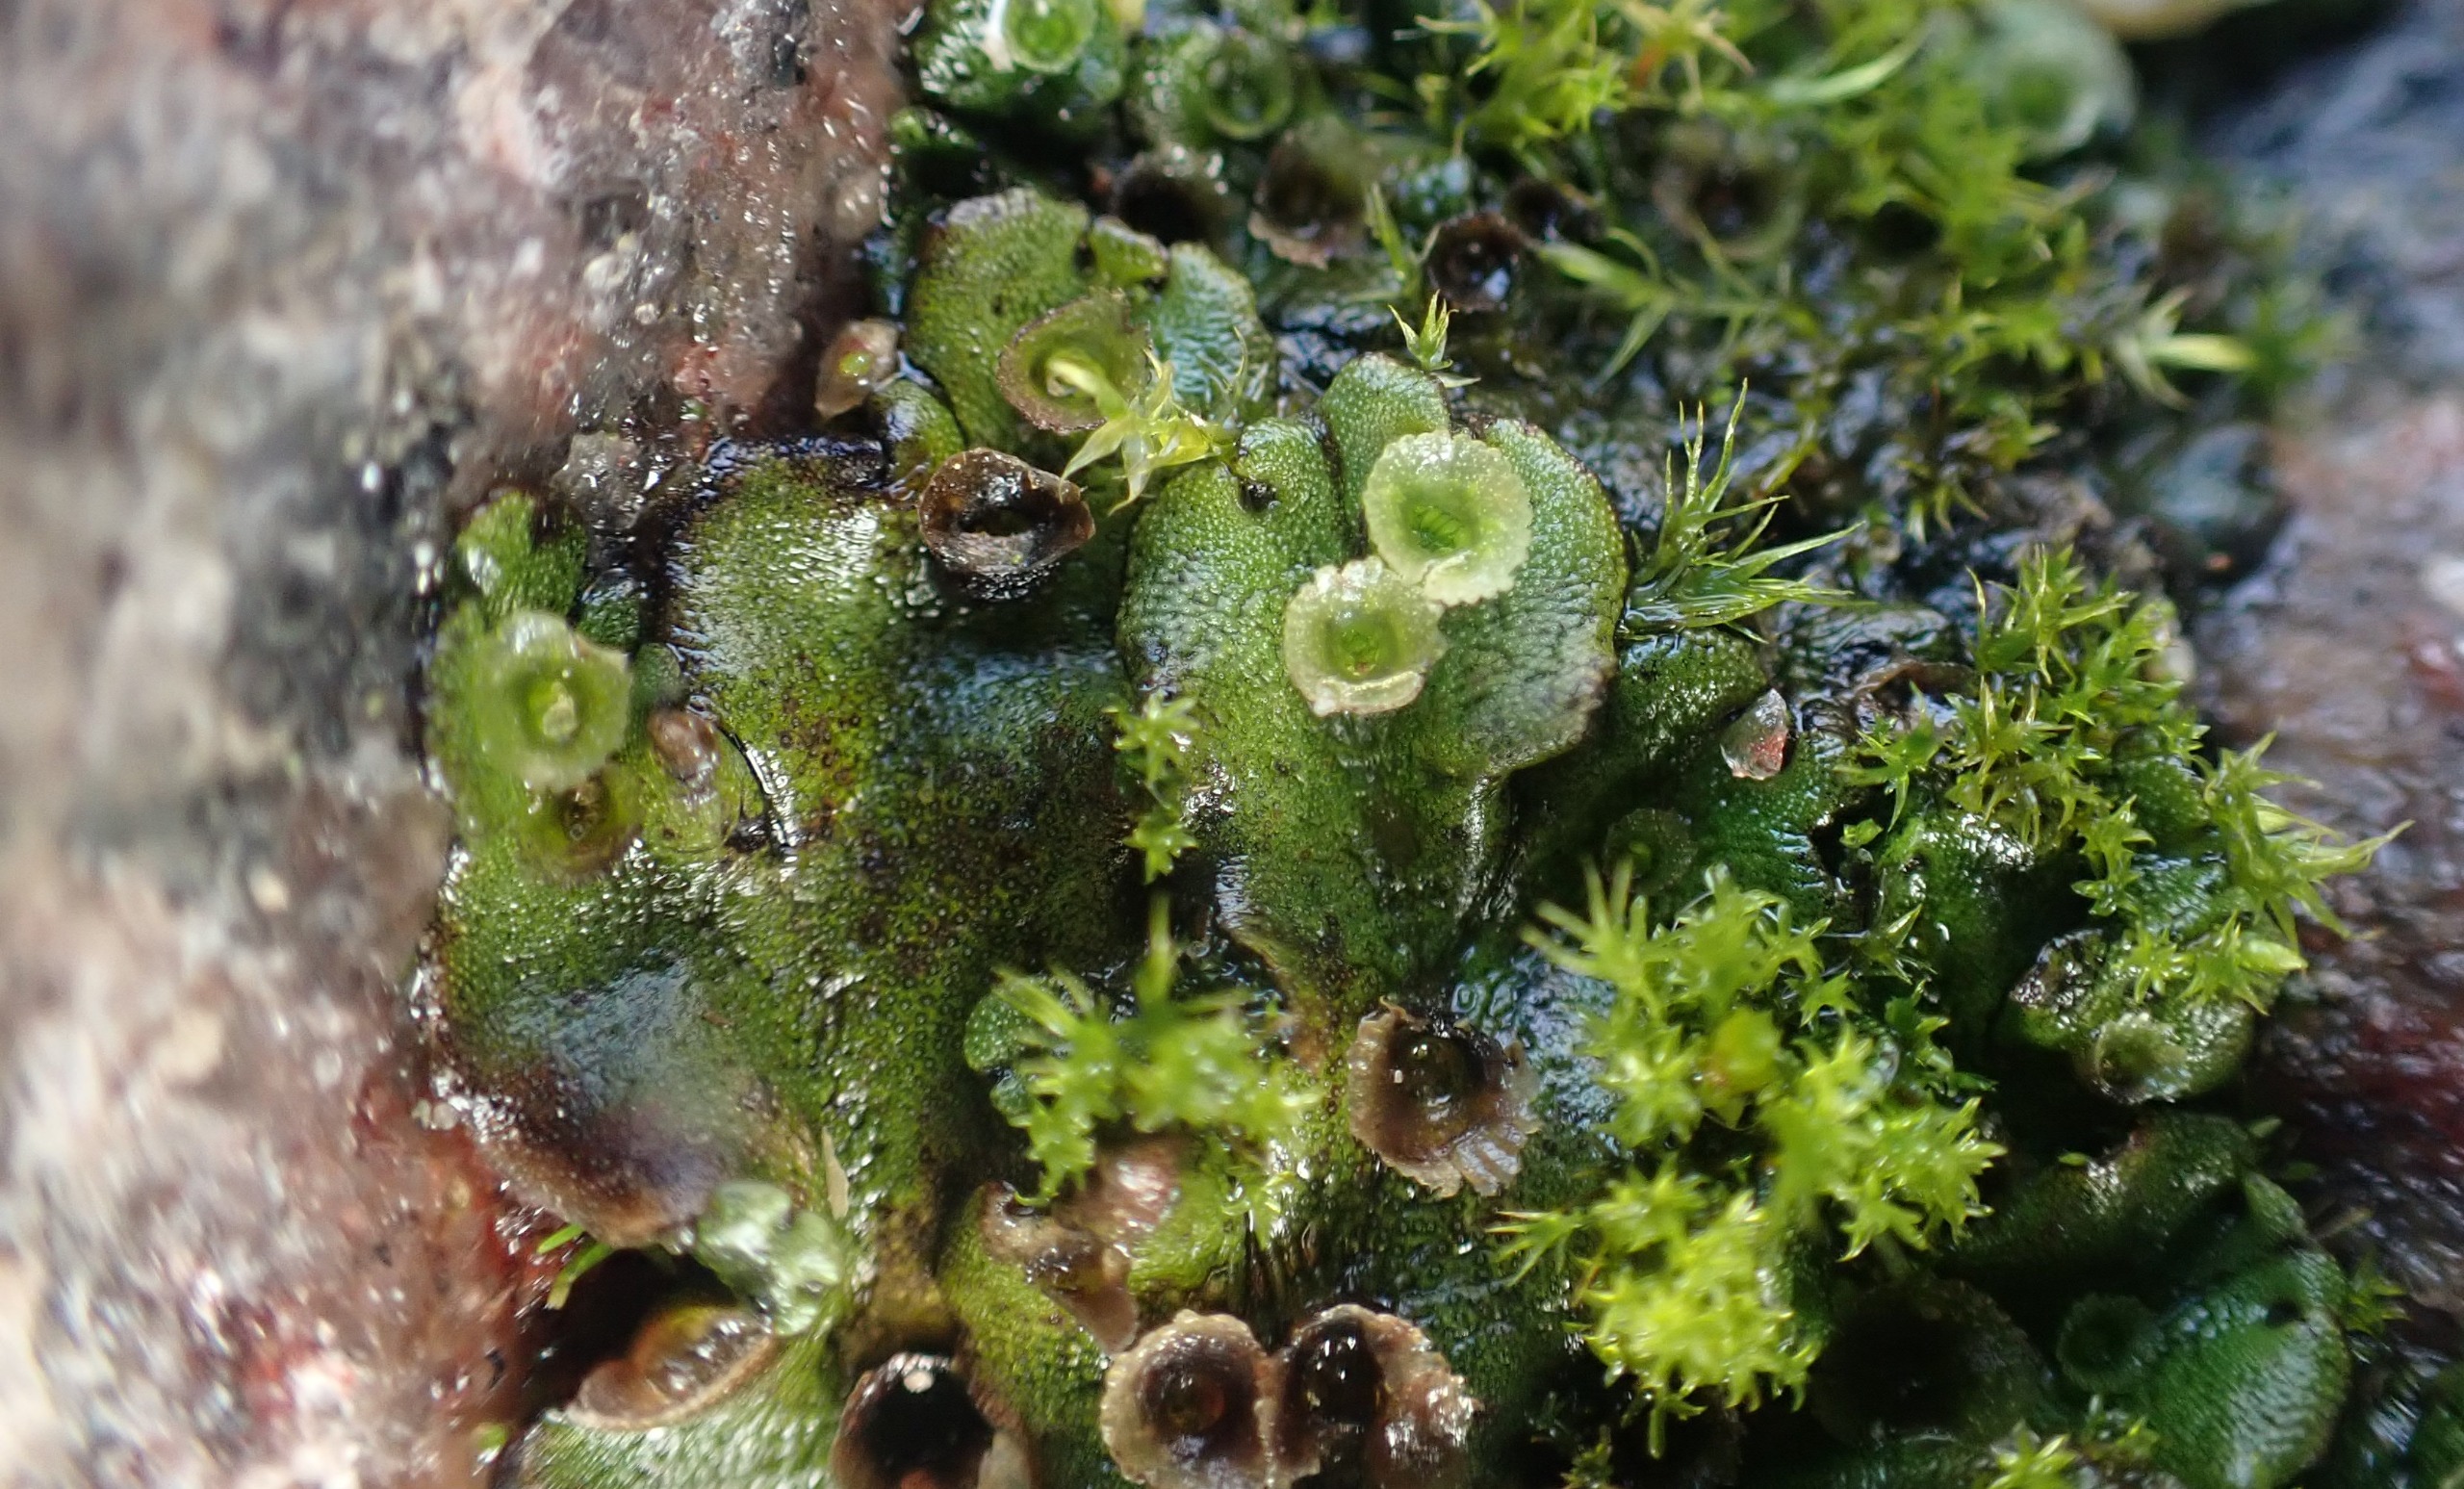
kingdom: Plantae
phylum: Marchantiophyta
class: Marchantiopsida
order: Marchantiales
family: Marchantiaceae
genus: Marchantia
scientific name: Marchantia polymorpha
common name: Almindelig lungemos (underart)
